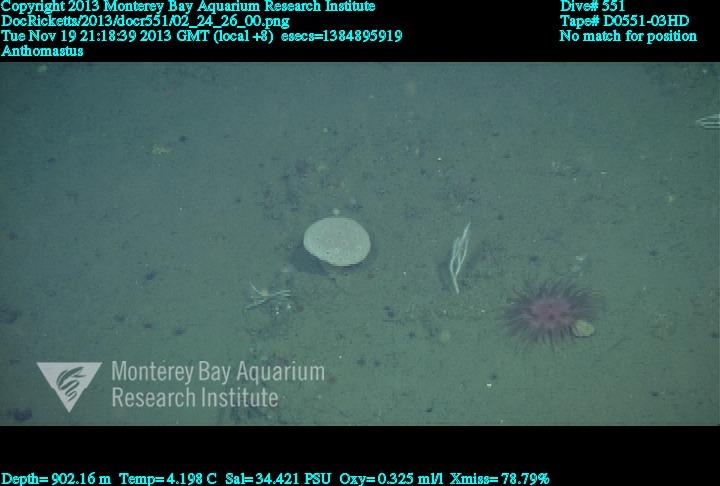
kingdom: Animalia
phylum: Cnidaria
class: Anthozoa
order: Scleralcyonacea
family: Coralliidae
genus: Heteropolypus
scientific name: Heteropolypus
